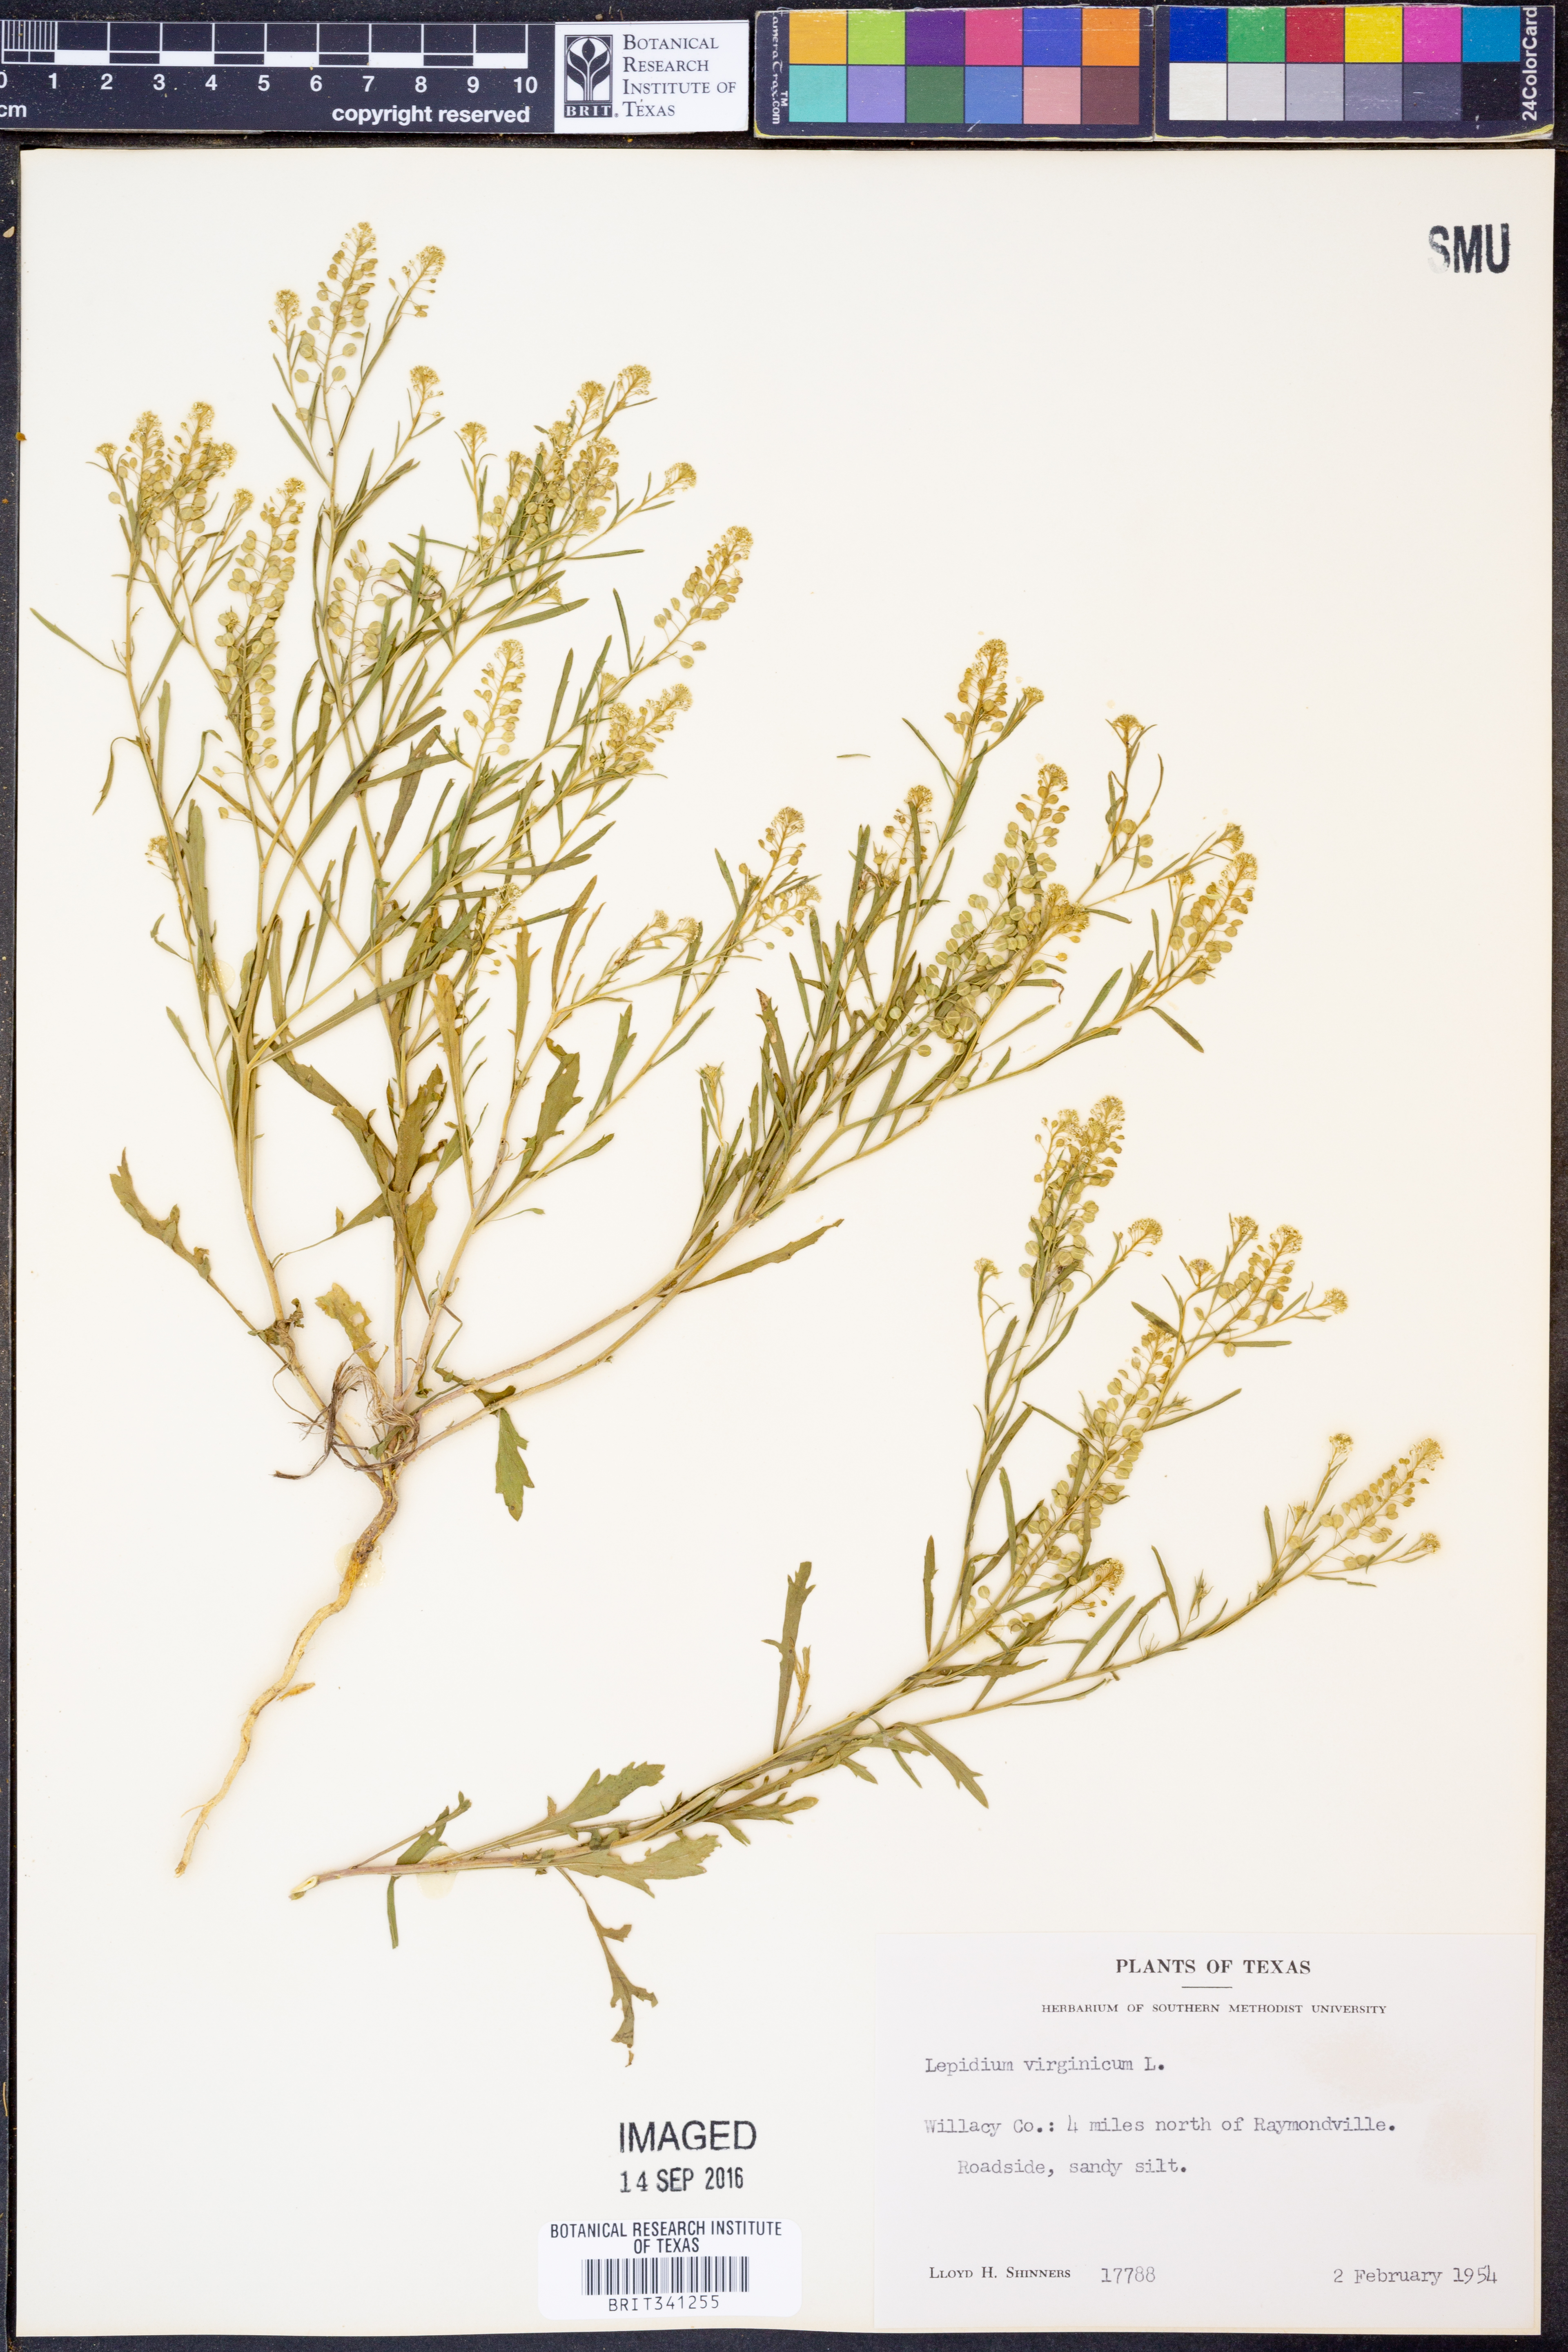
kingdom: Plantae
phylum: Tracheophyta
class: Magnoliopsida
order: Brassicales
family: Brassicaceae
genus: Lepidium
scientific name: Lepidium virginicum
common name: Least pepperwort
